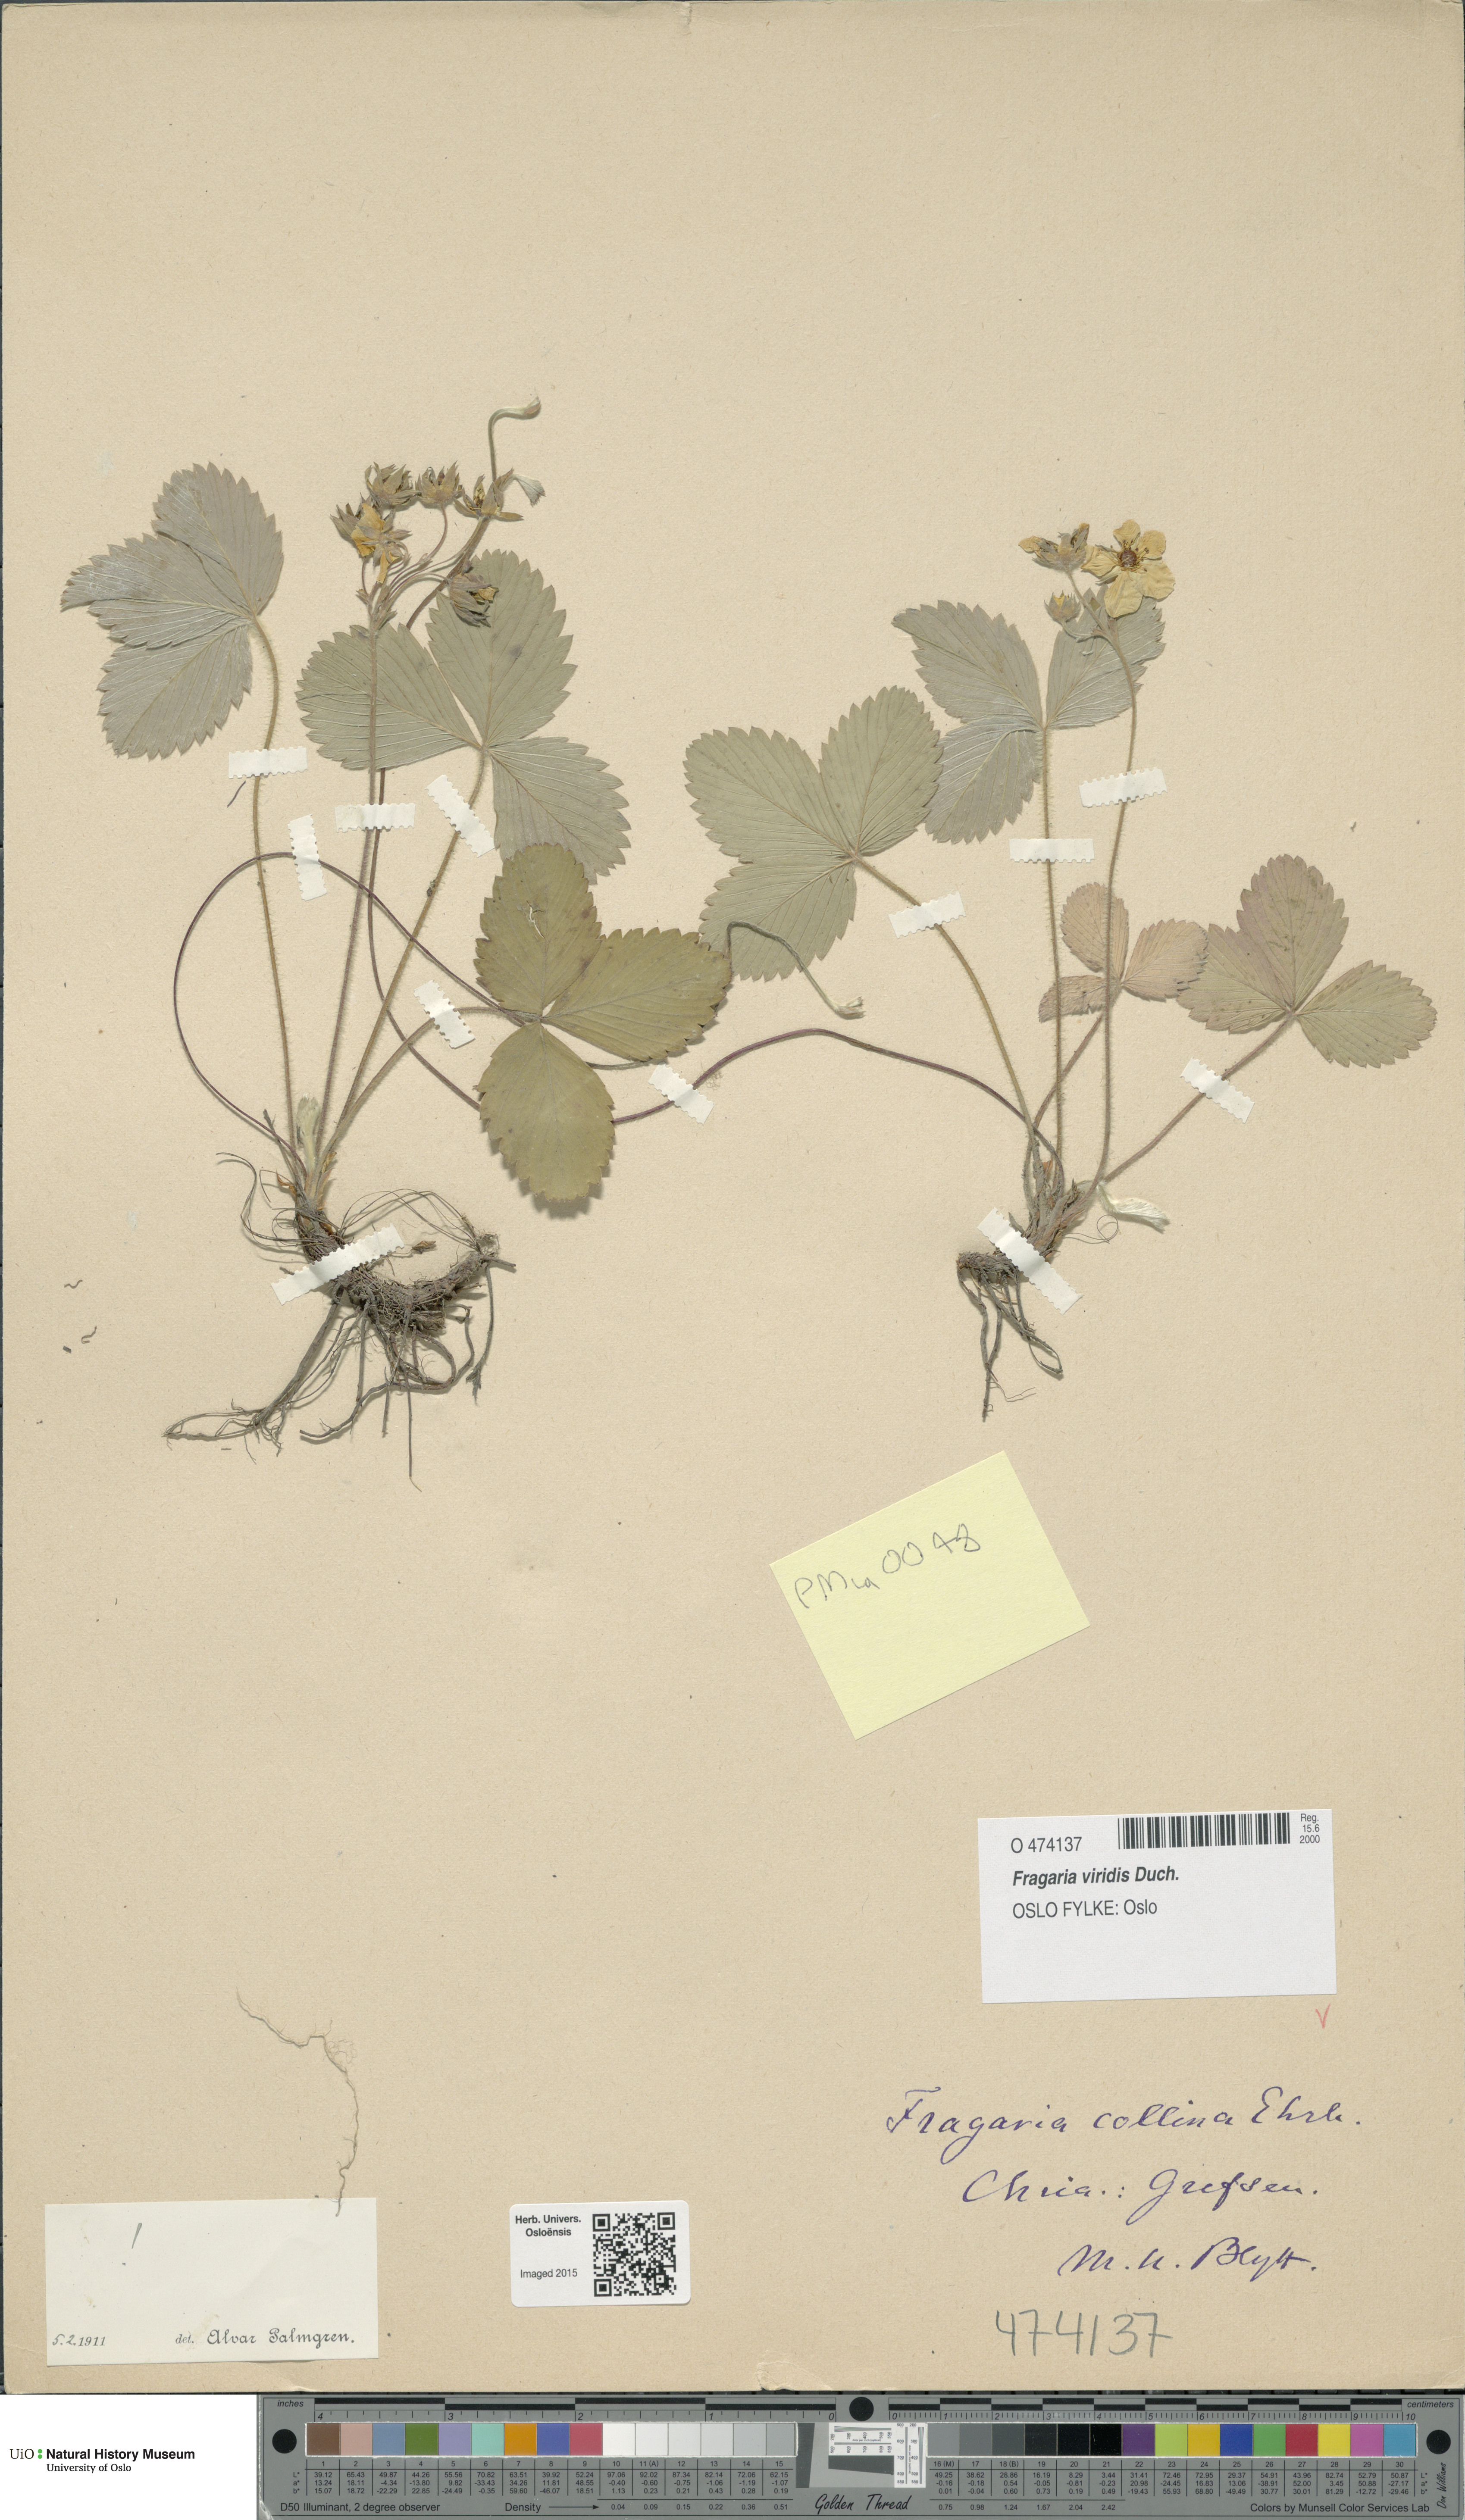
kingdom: Plantae
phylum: Tracheophyta
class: Magnoliopsida
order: Rosales
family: Rosaceae
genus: Fragaria
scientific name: Fragaria viridis
